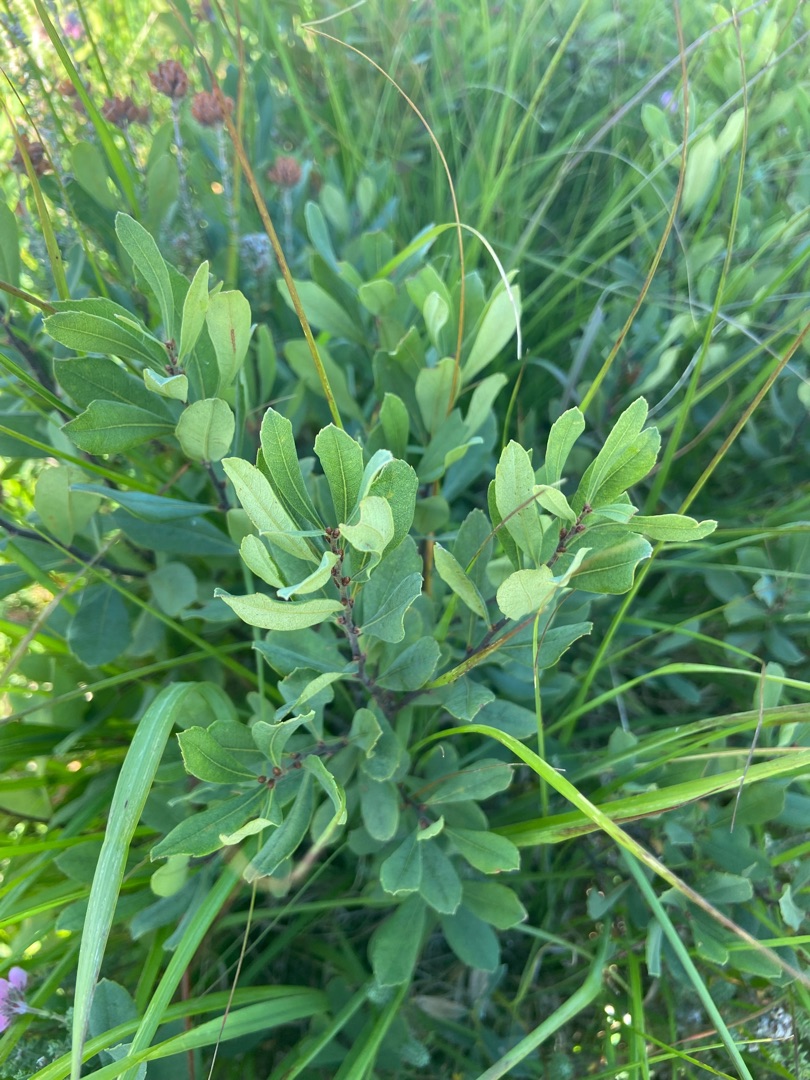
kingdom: Plantae
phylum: Tracheophyta
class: Magnoliopsida
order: Fagales
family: Myricaceae
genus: Myrica
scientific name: Myrica gale
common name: Pors
